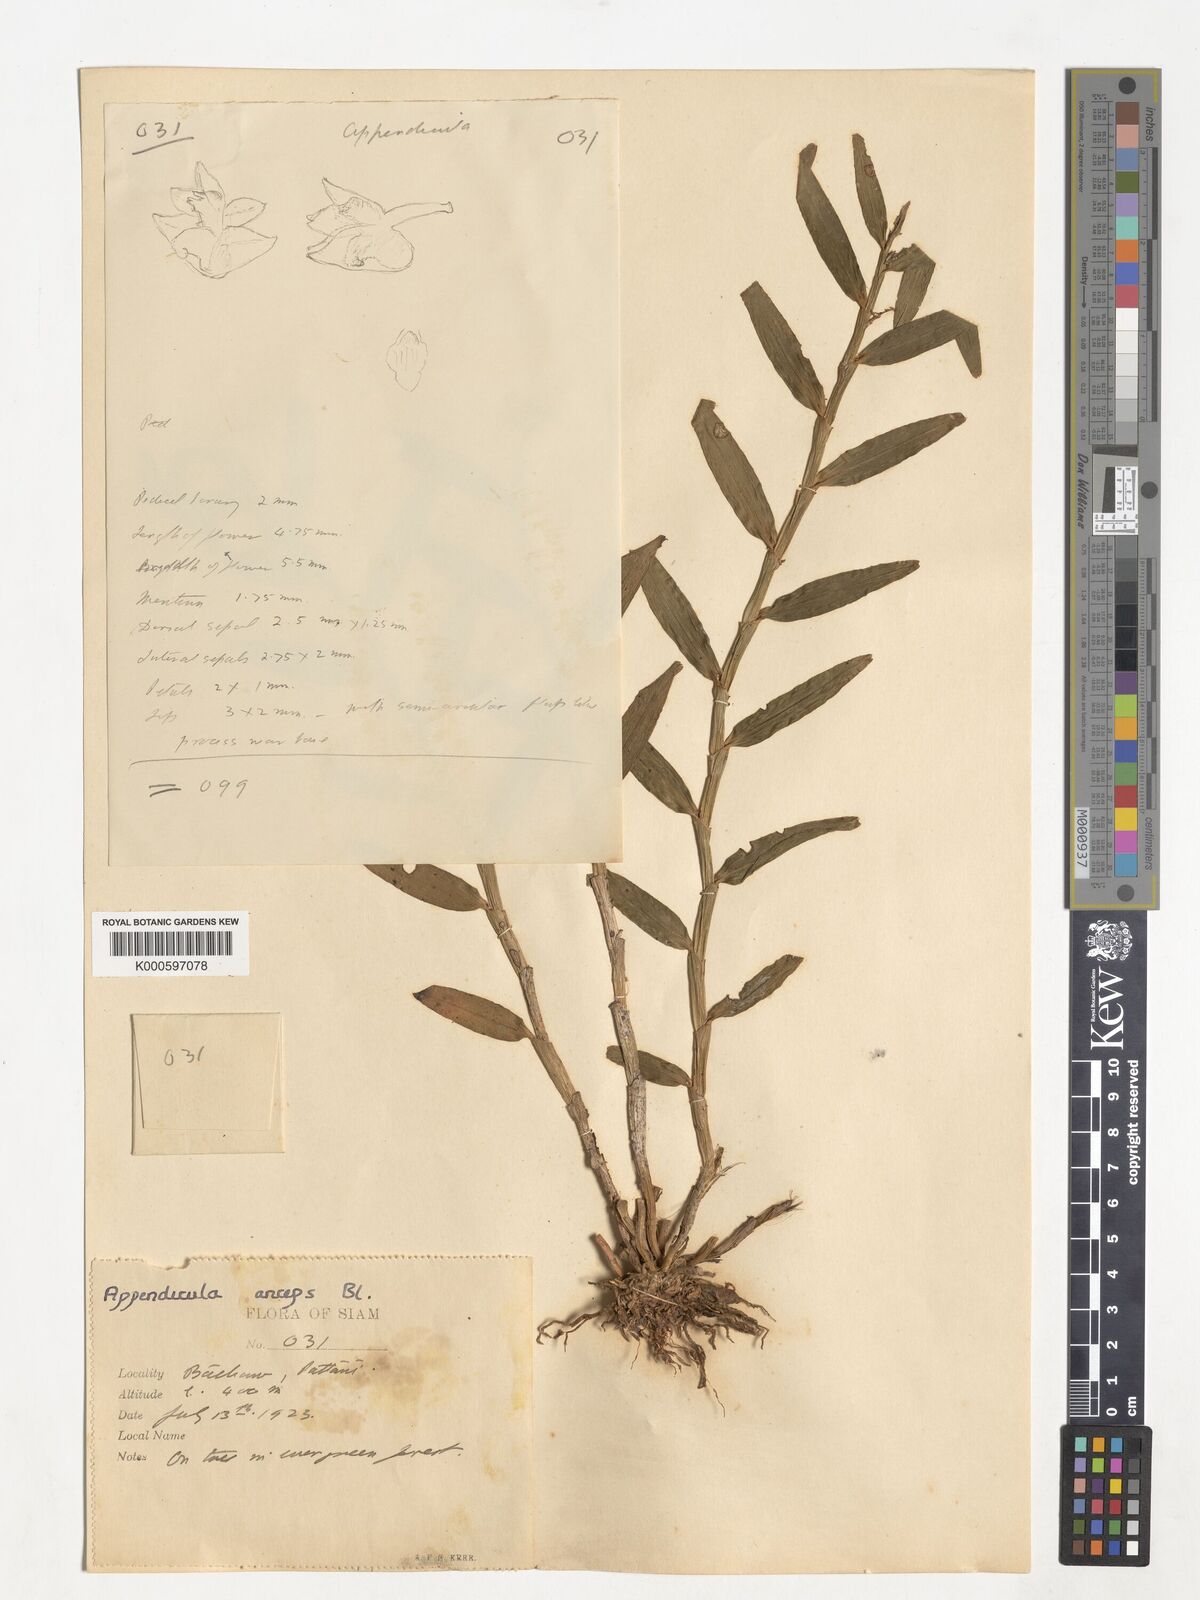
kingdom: Plantae
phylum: Tracheophyta
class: Liliopsida
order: Asparagales
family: Orchidaceae
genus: Appendicula
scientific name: Appendicula anceps
